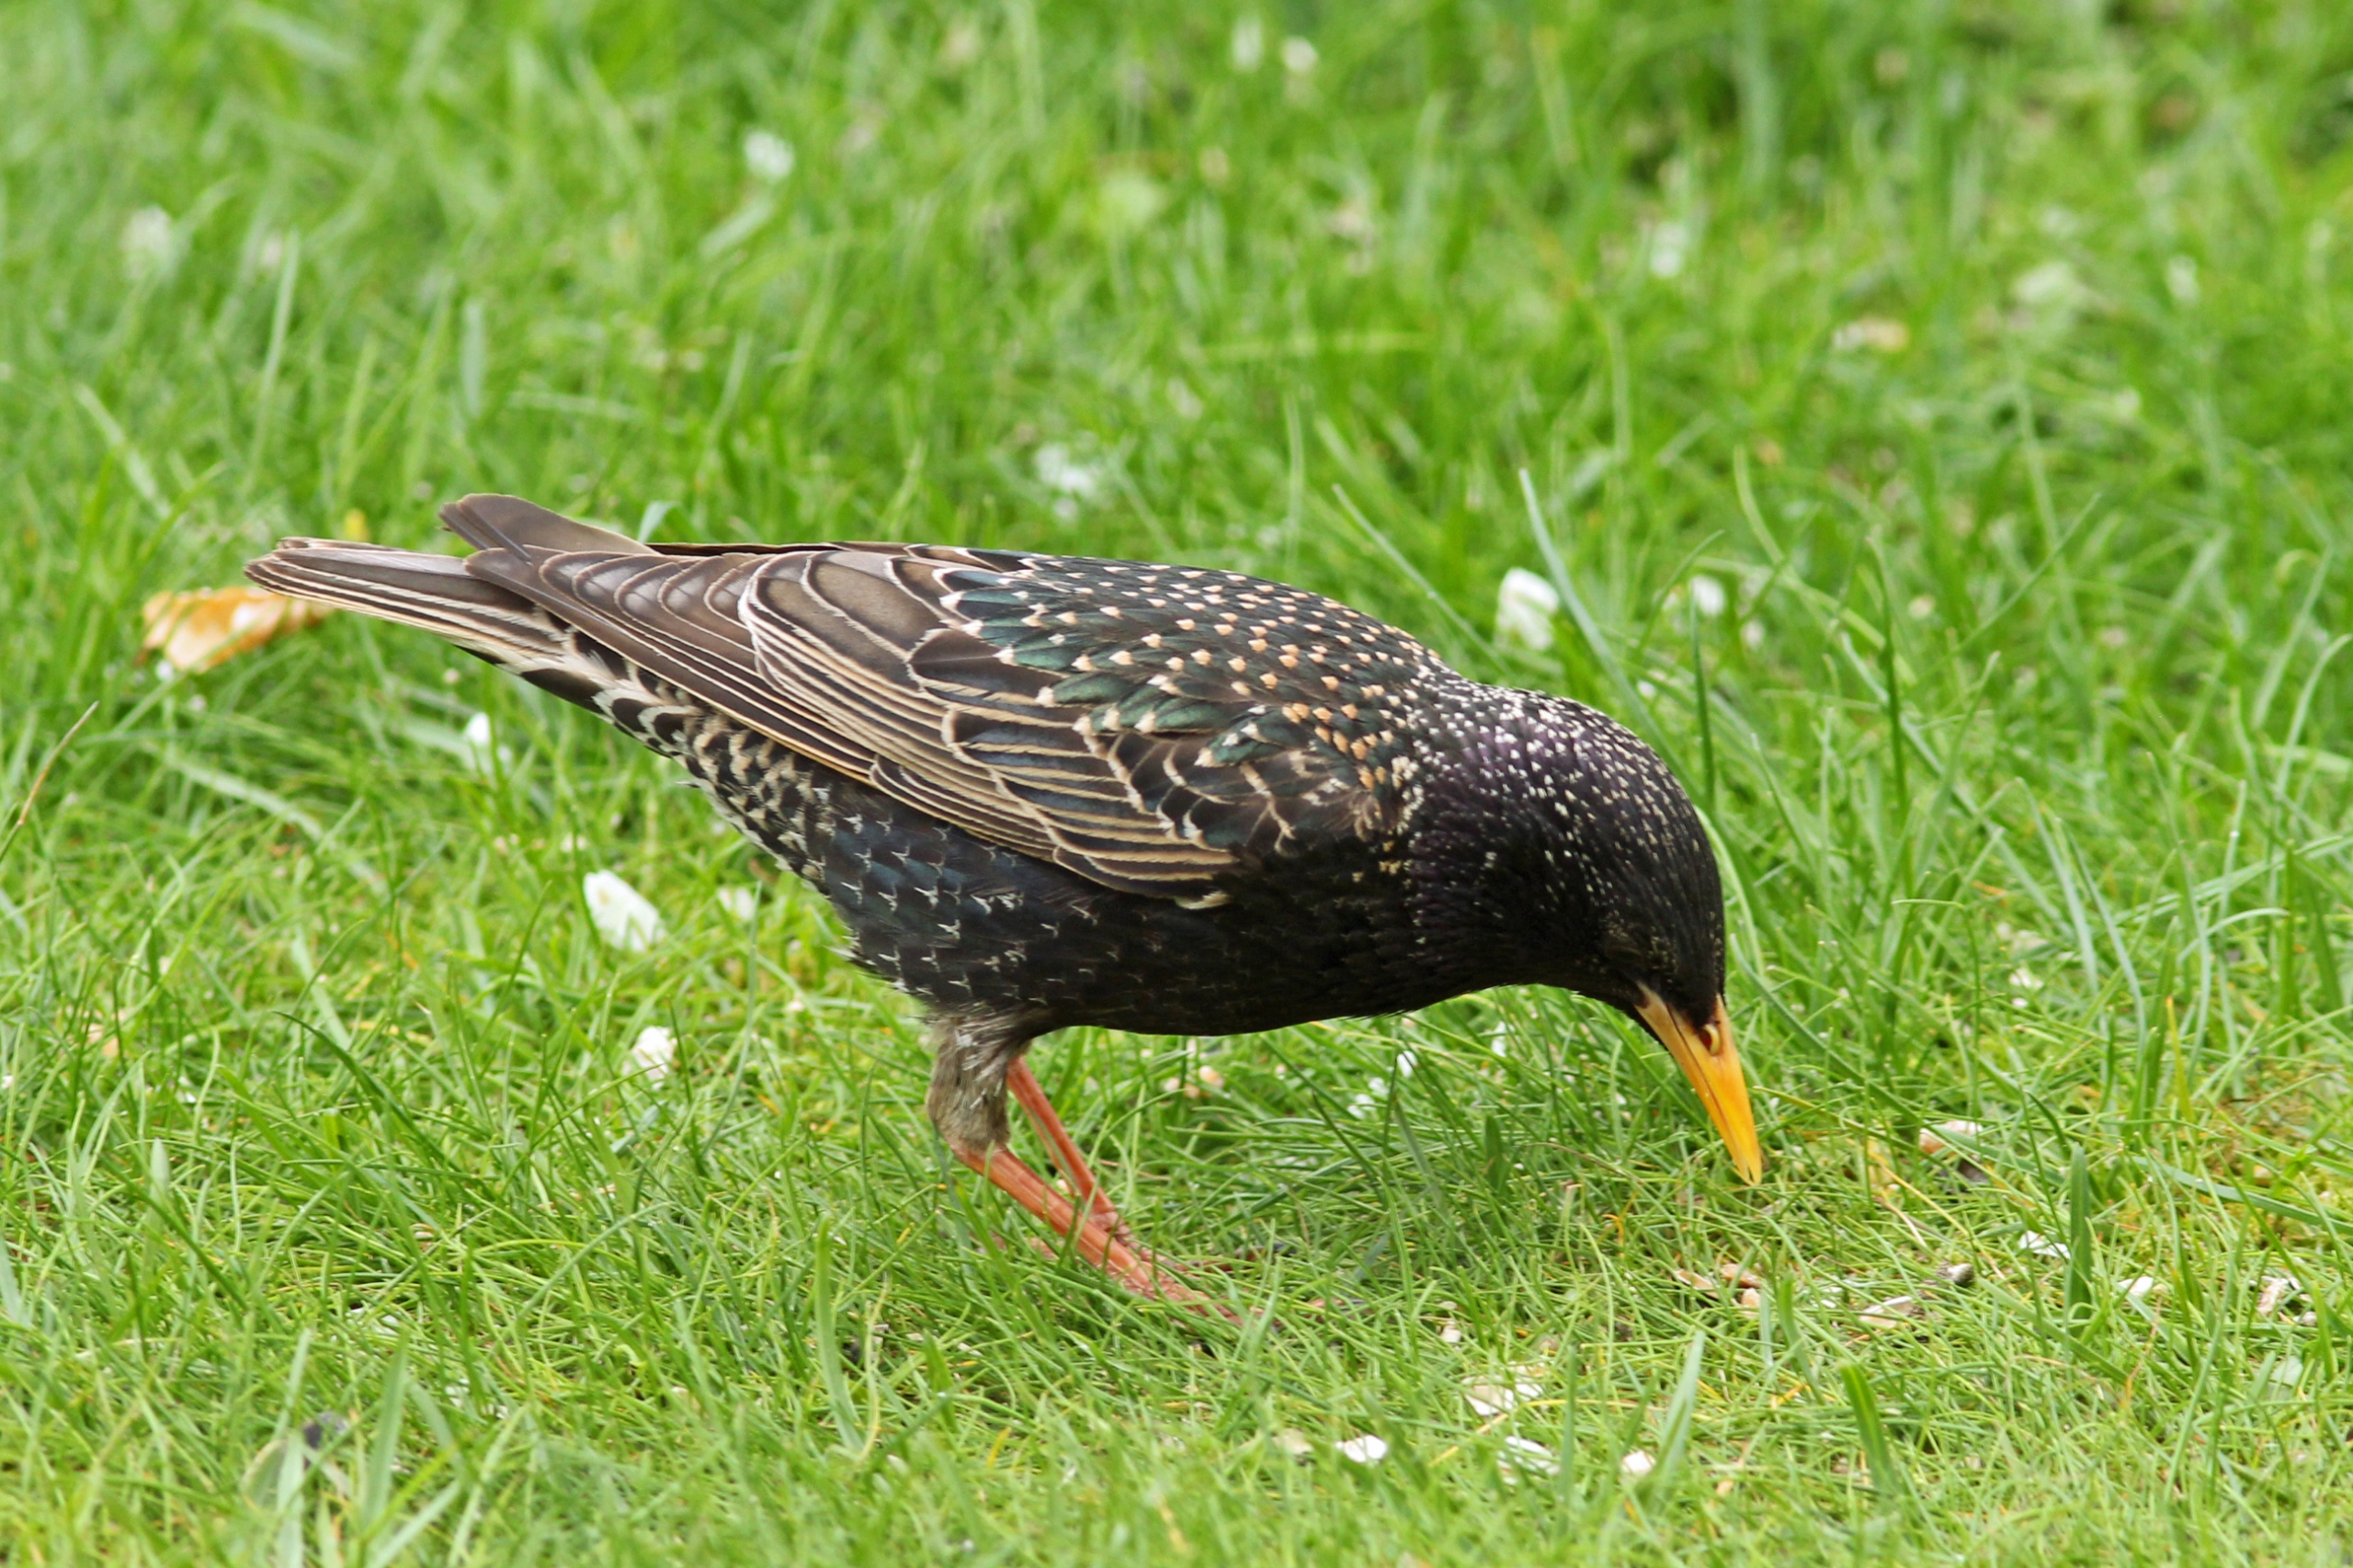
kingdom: Animalia
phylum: Chordata
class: Aves
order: Passeriformes
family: Sturnidae
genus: Sturnus
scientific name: Sturnus vulgaris
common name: Stær
